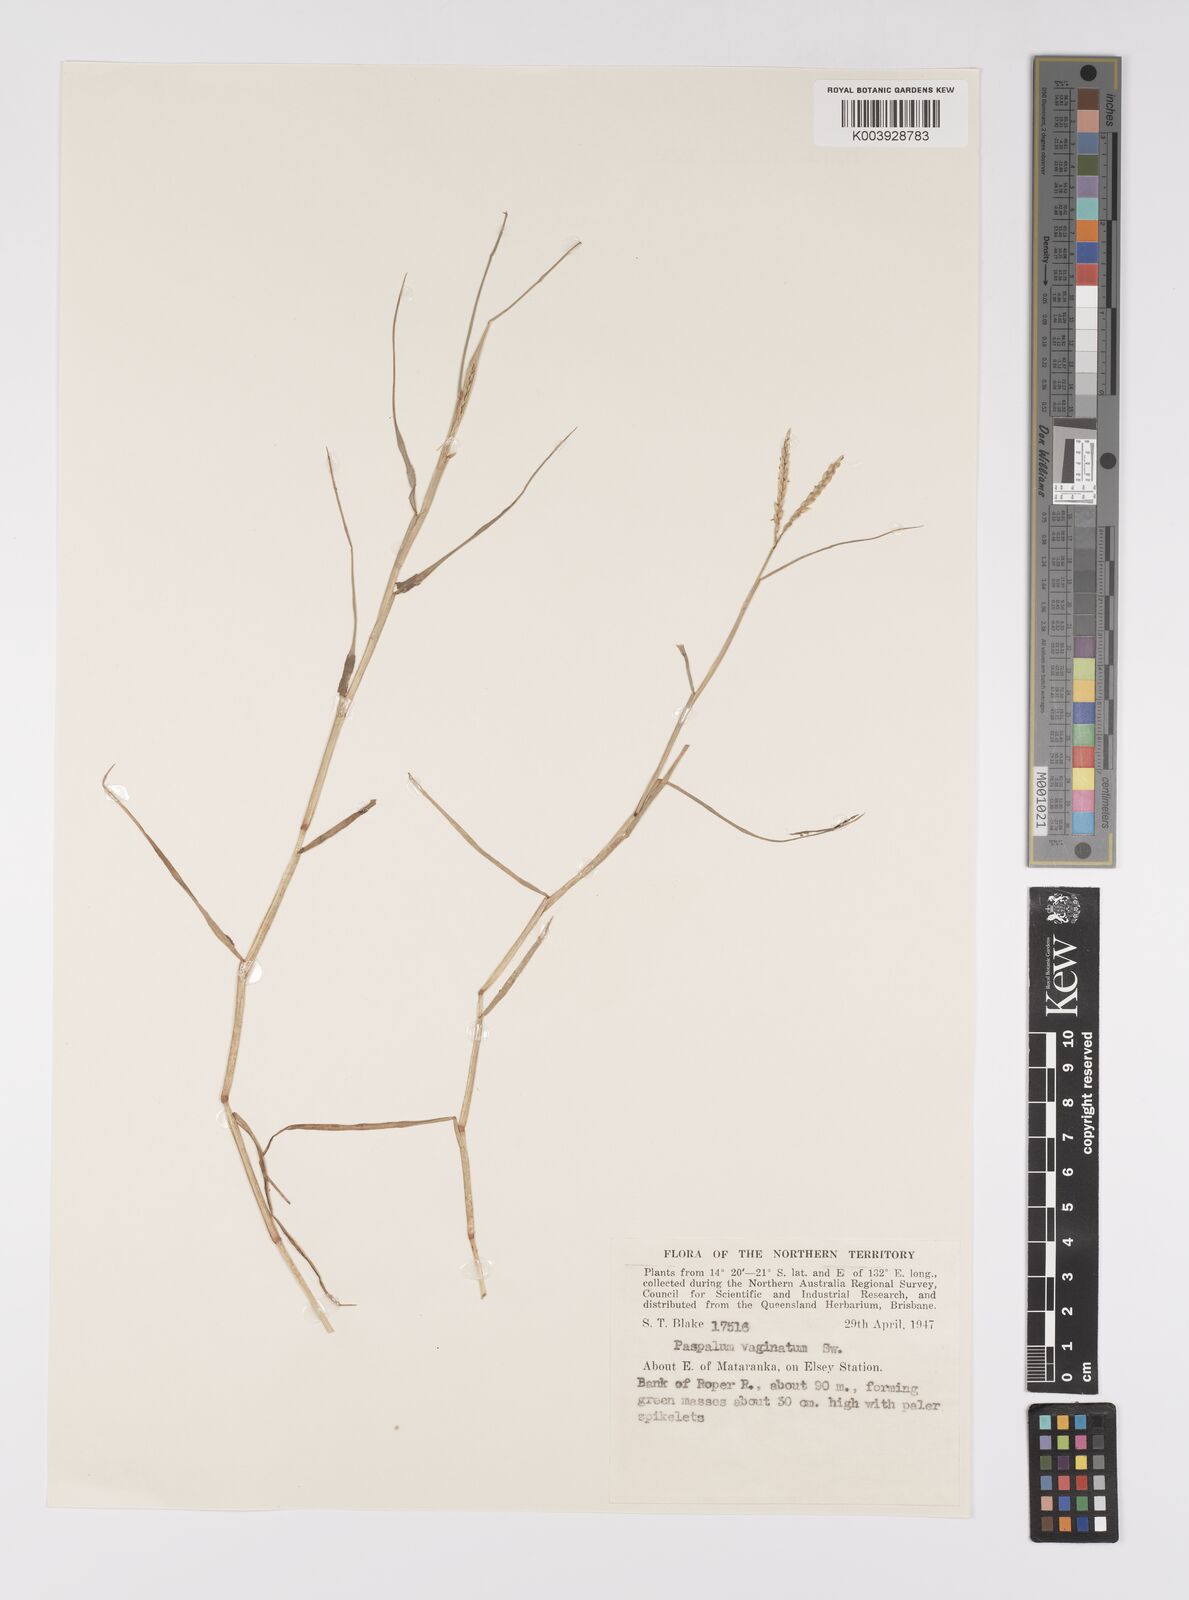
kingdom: Plantae
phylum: Tracheophyta
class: Liliopsida
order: Poales
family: Poaceae
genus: Paspalum
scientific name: Paspalum vaginatum
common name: Seashore paspalum
